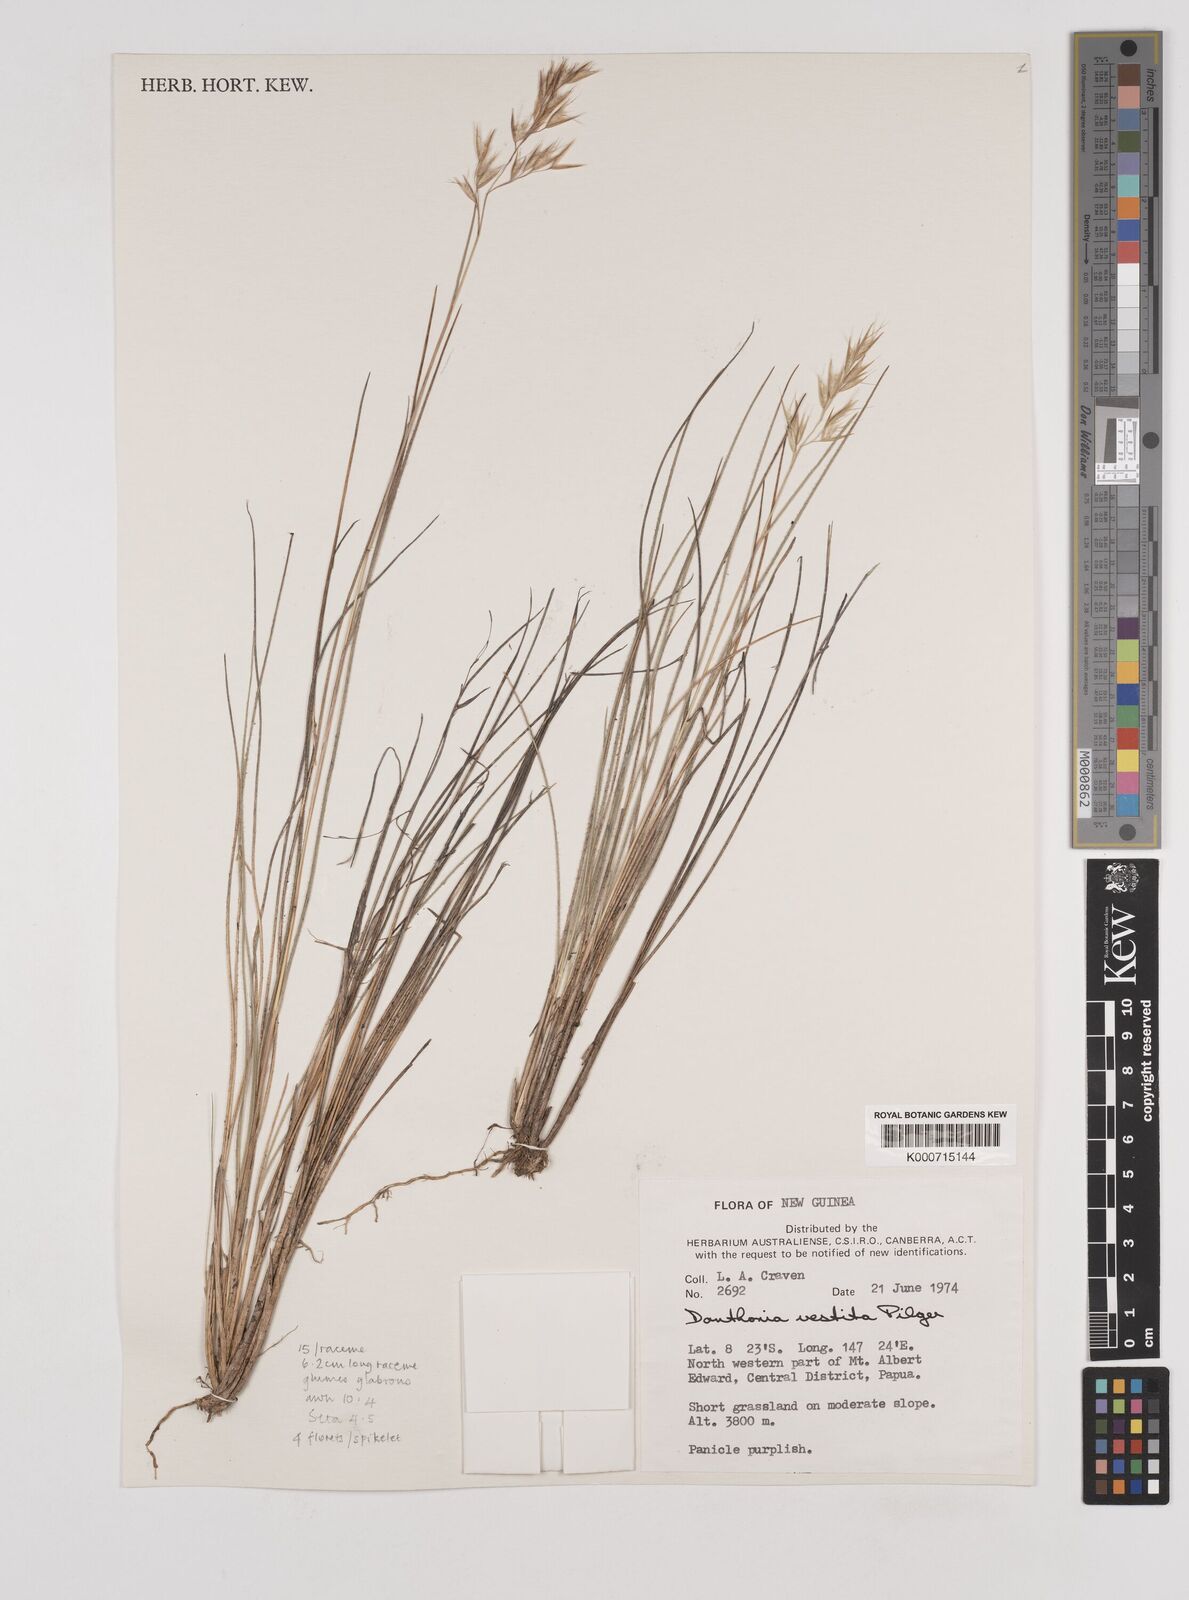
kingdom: Plantae
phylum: Tracheophyta
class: Liliopsida
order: Poales
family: Poaceae
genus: Rytidosperma
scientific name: Rytidosperma vestitum
